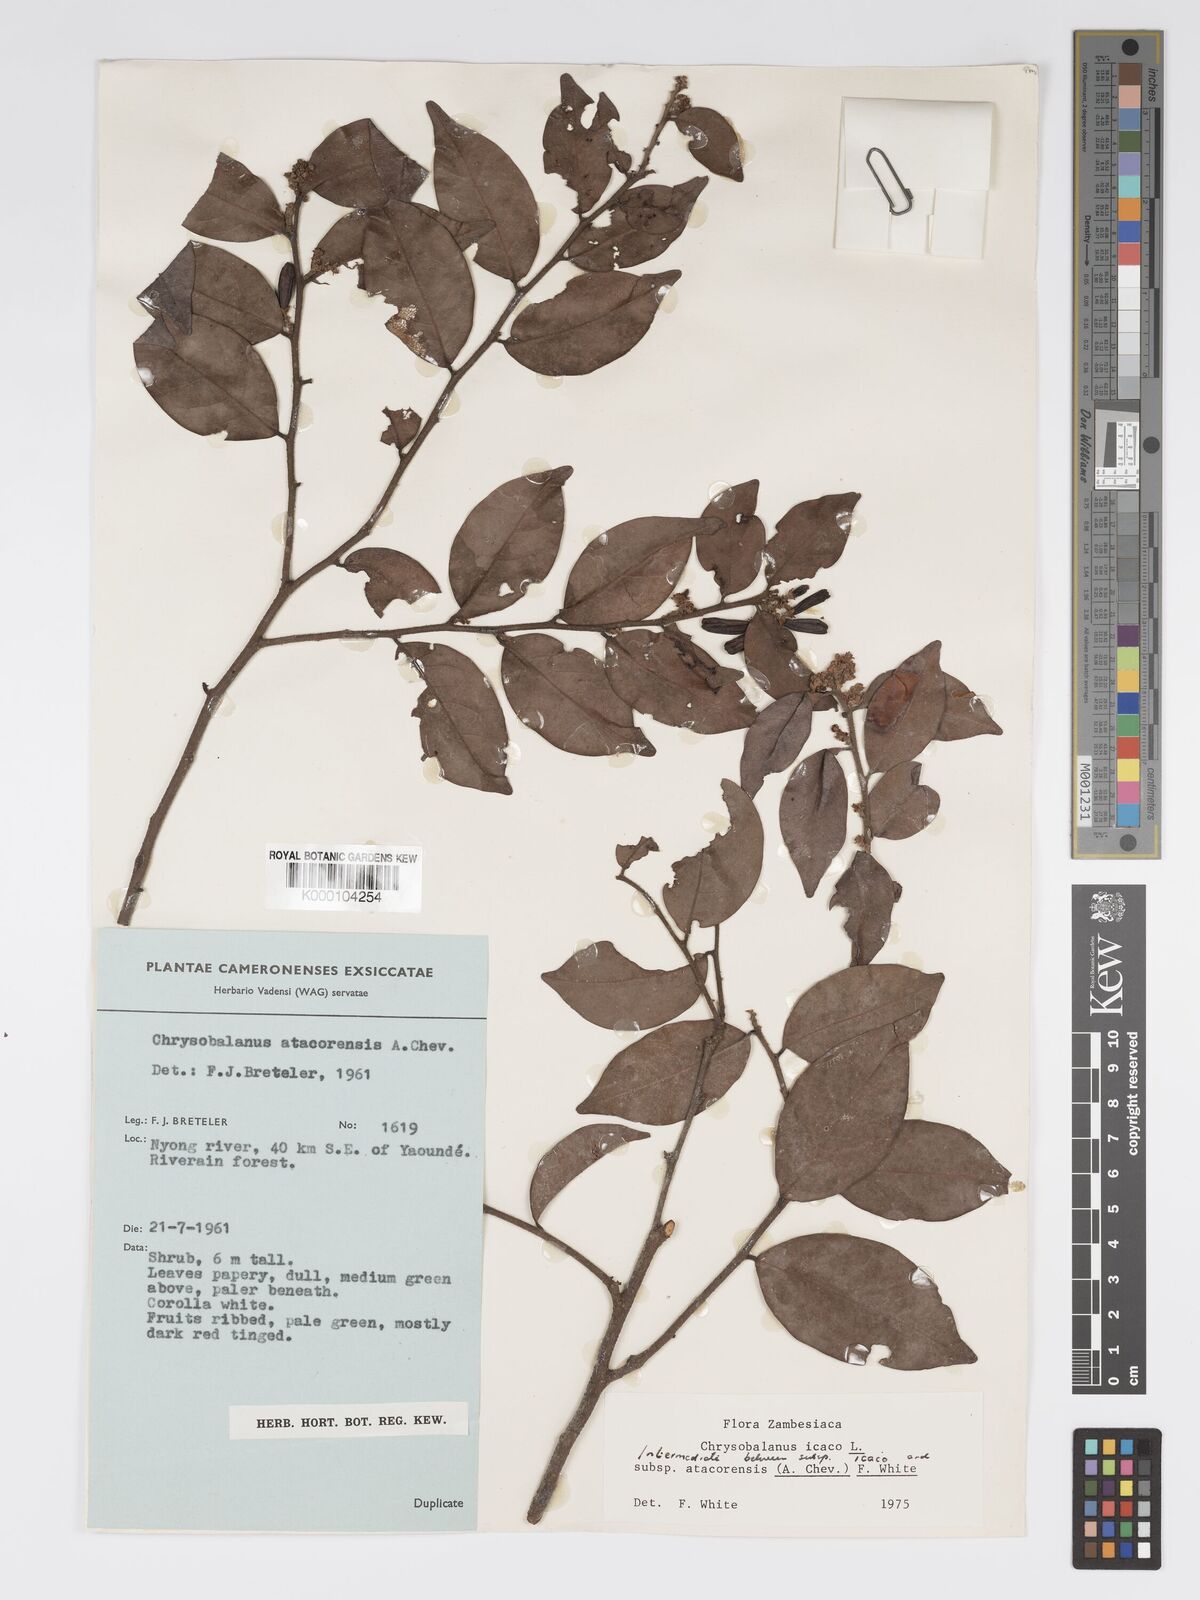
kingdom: Plantae
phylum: Tracheophyta
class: Magnoliopsida
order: Malpighiales
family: Chrysobalanaceae
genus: Chrysobalanus
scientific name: Chrysobalanus icaco
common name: Coco plum
